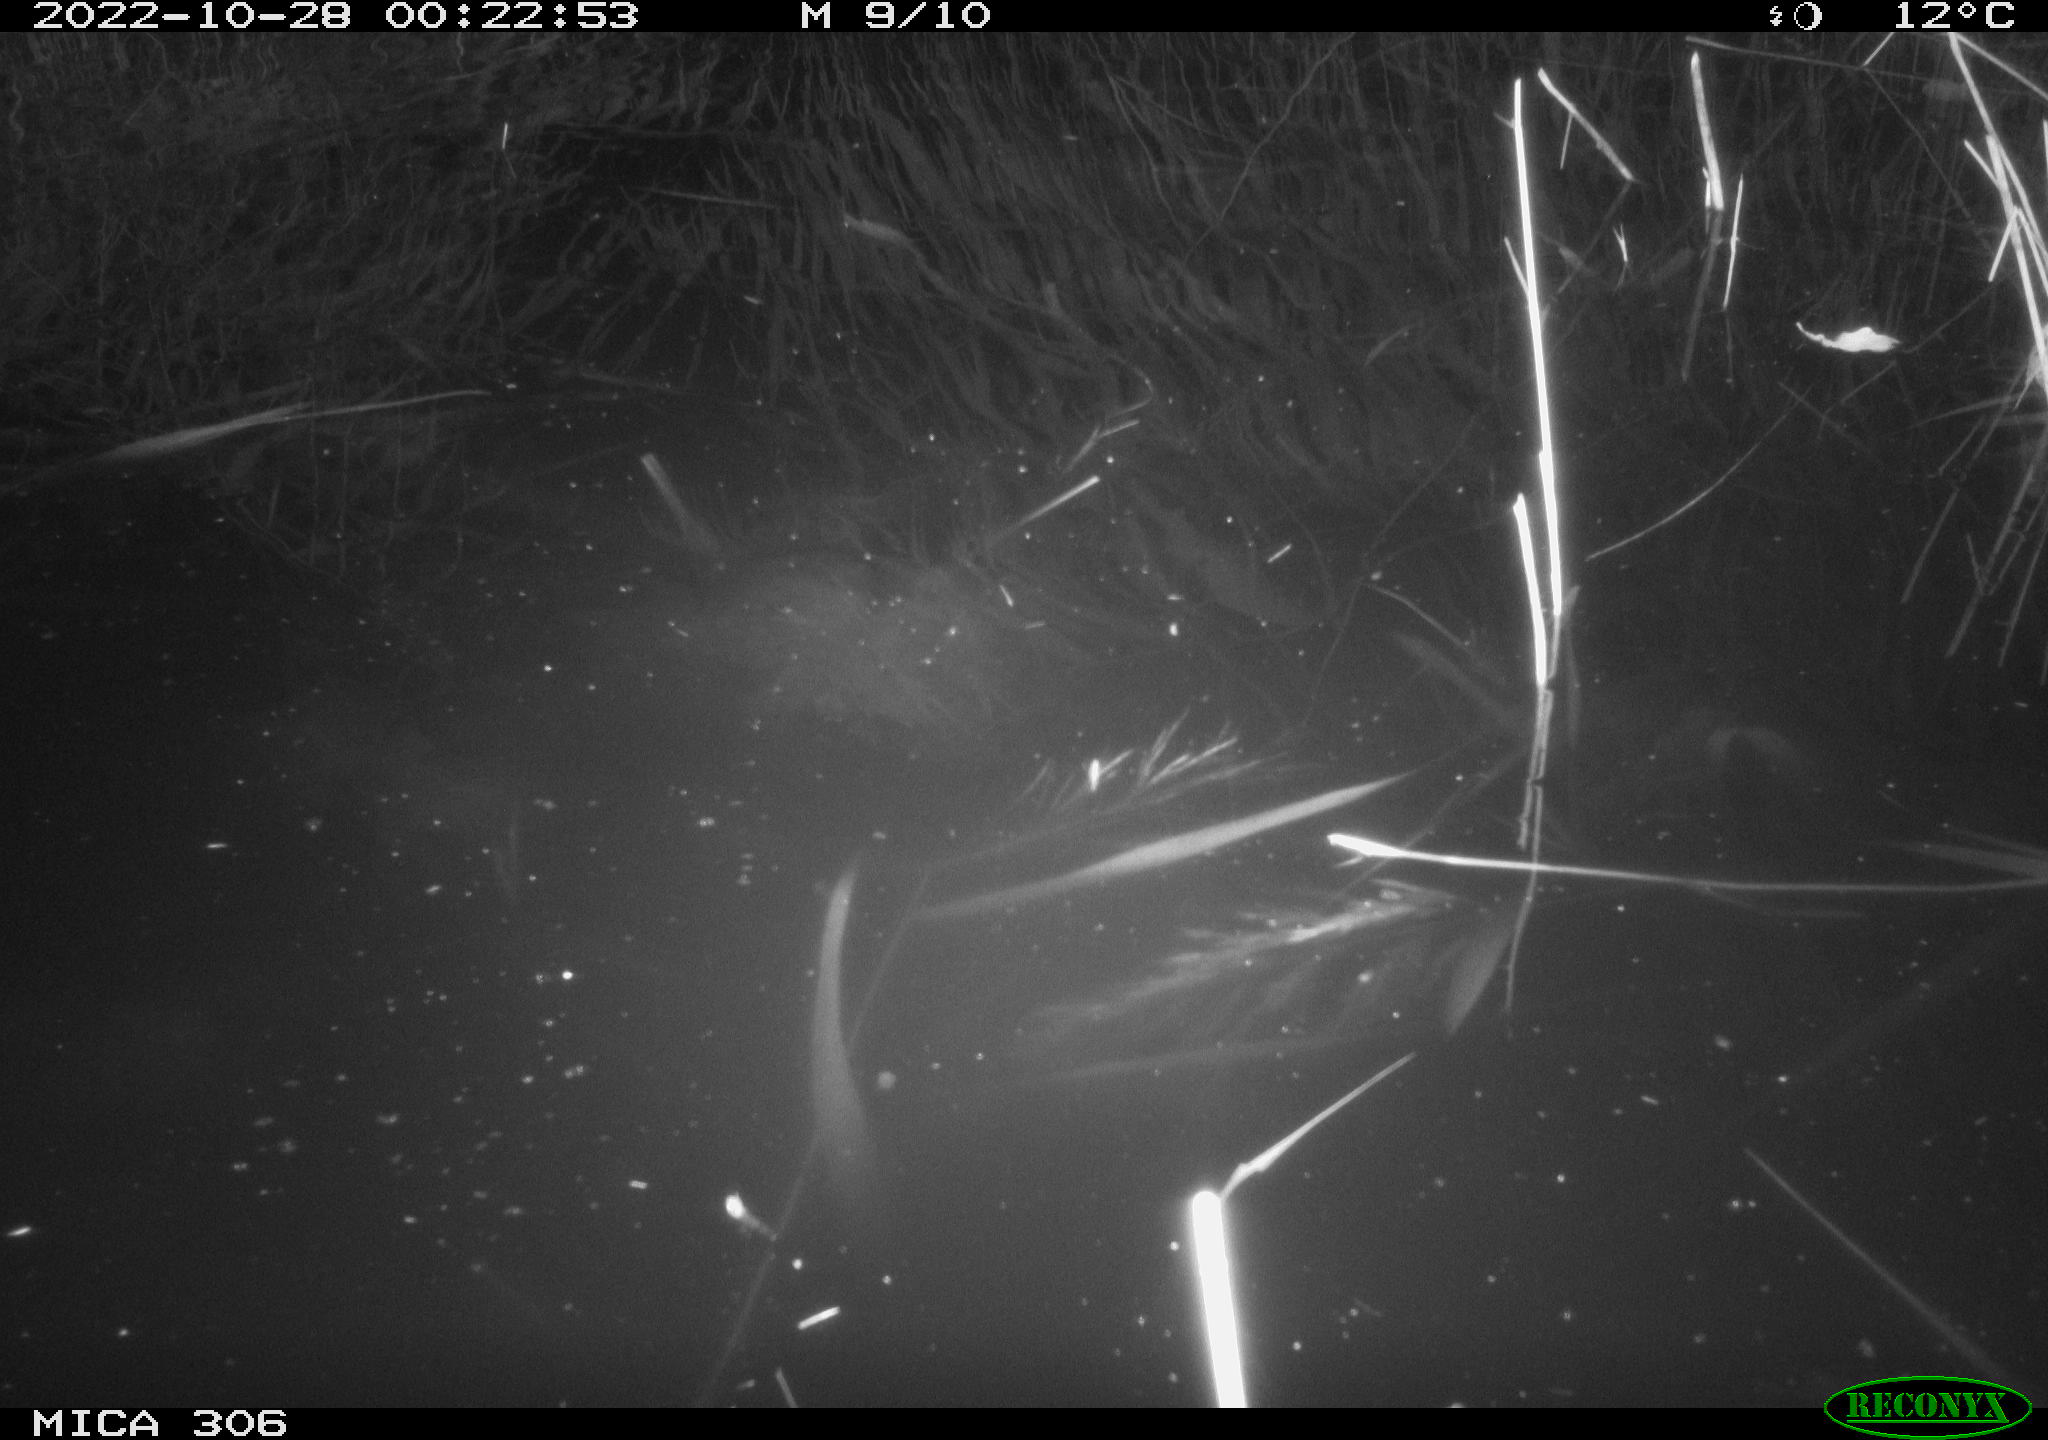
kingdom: Animalia
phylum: Chordata
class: Mammalia
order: Rodentia
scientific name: Rodentia
